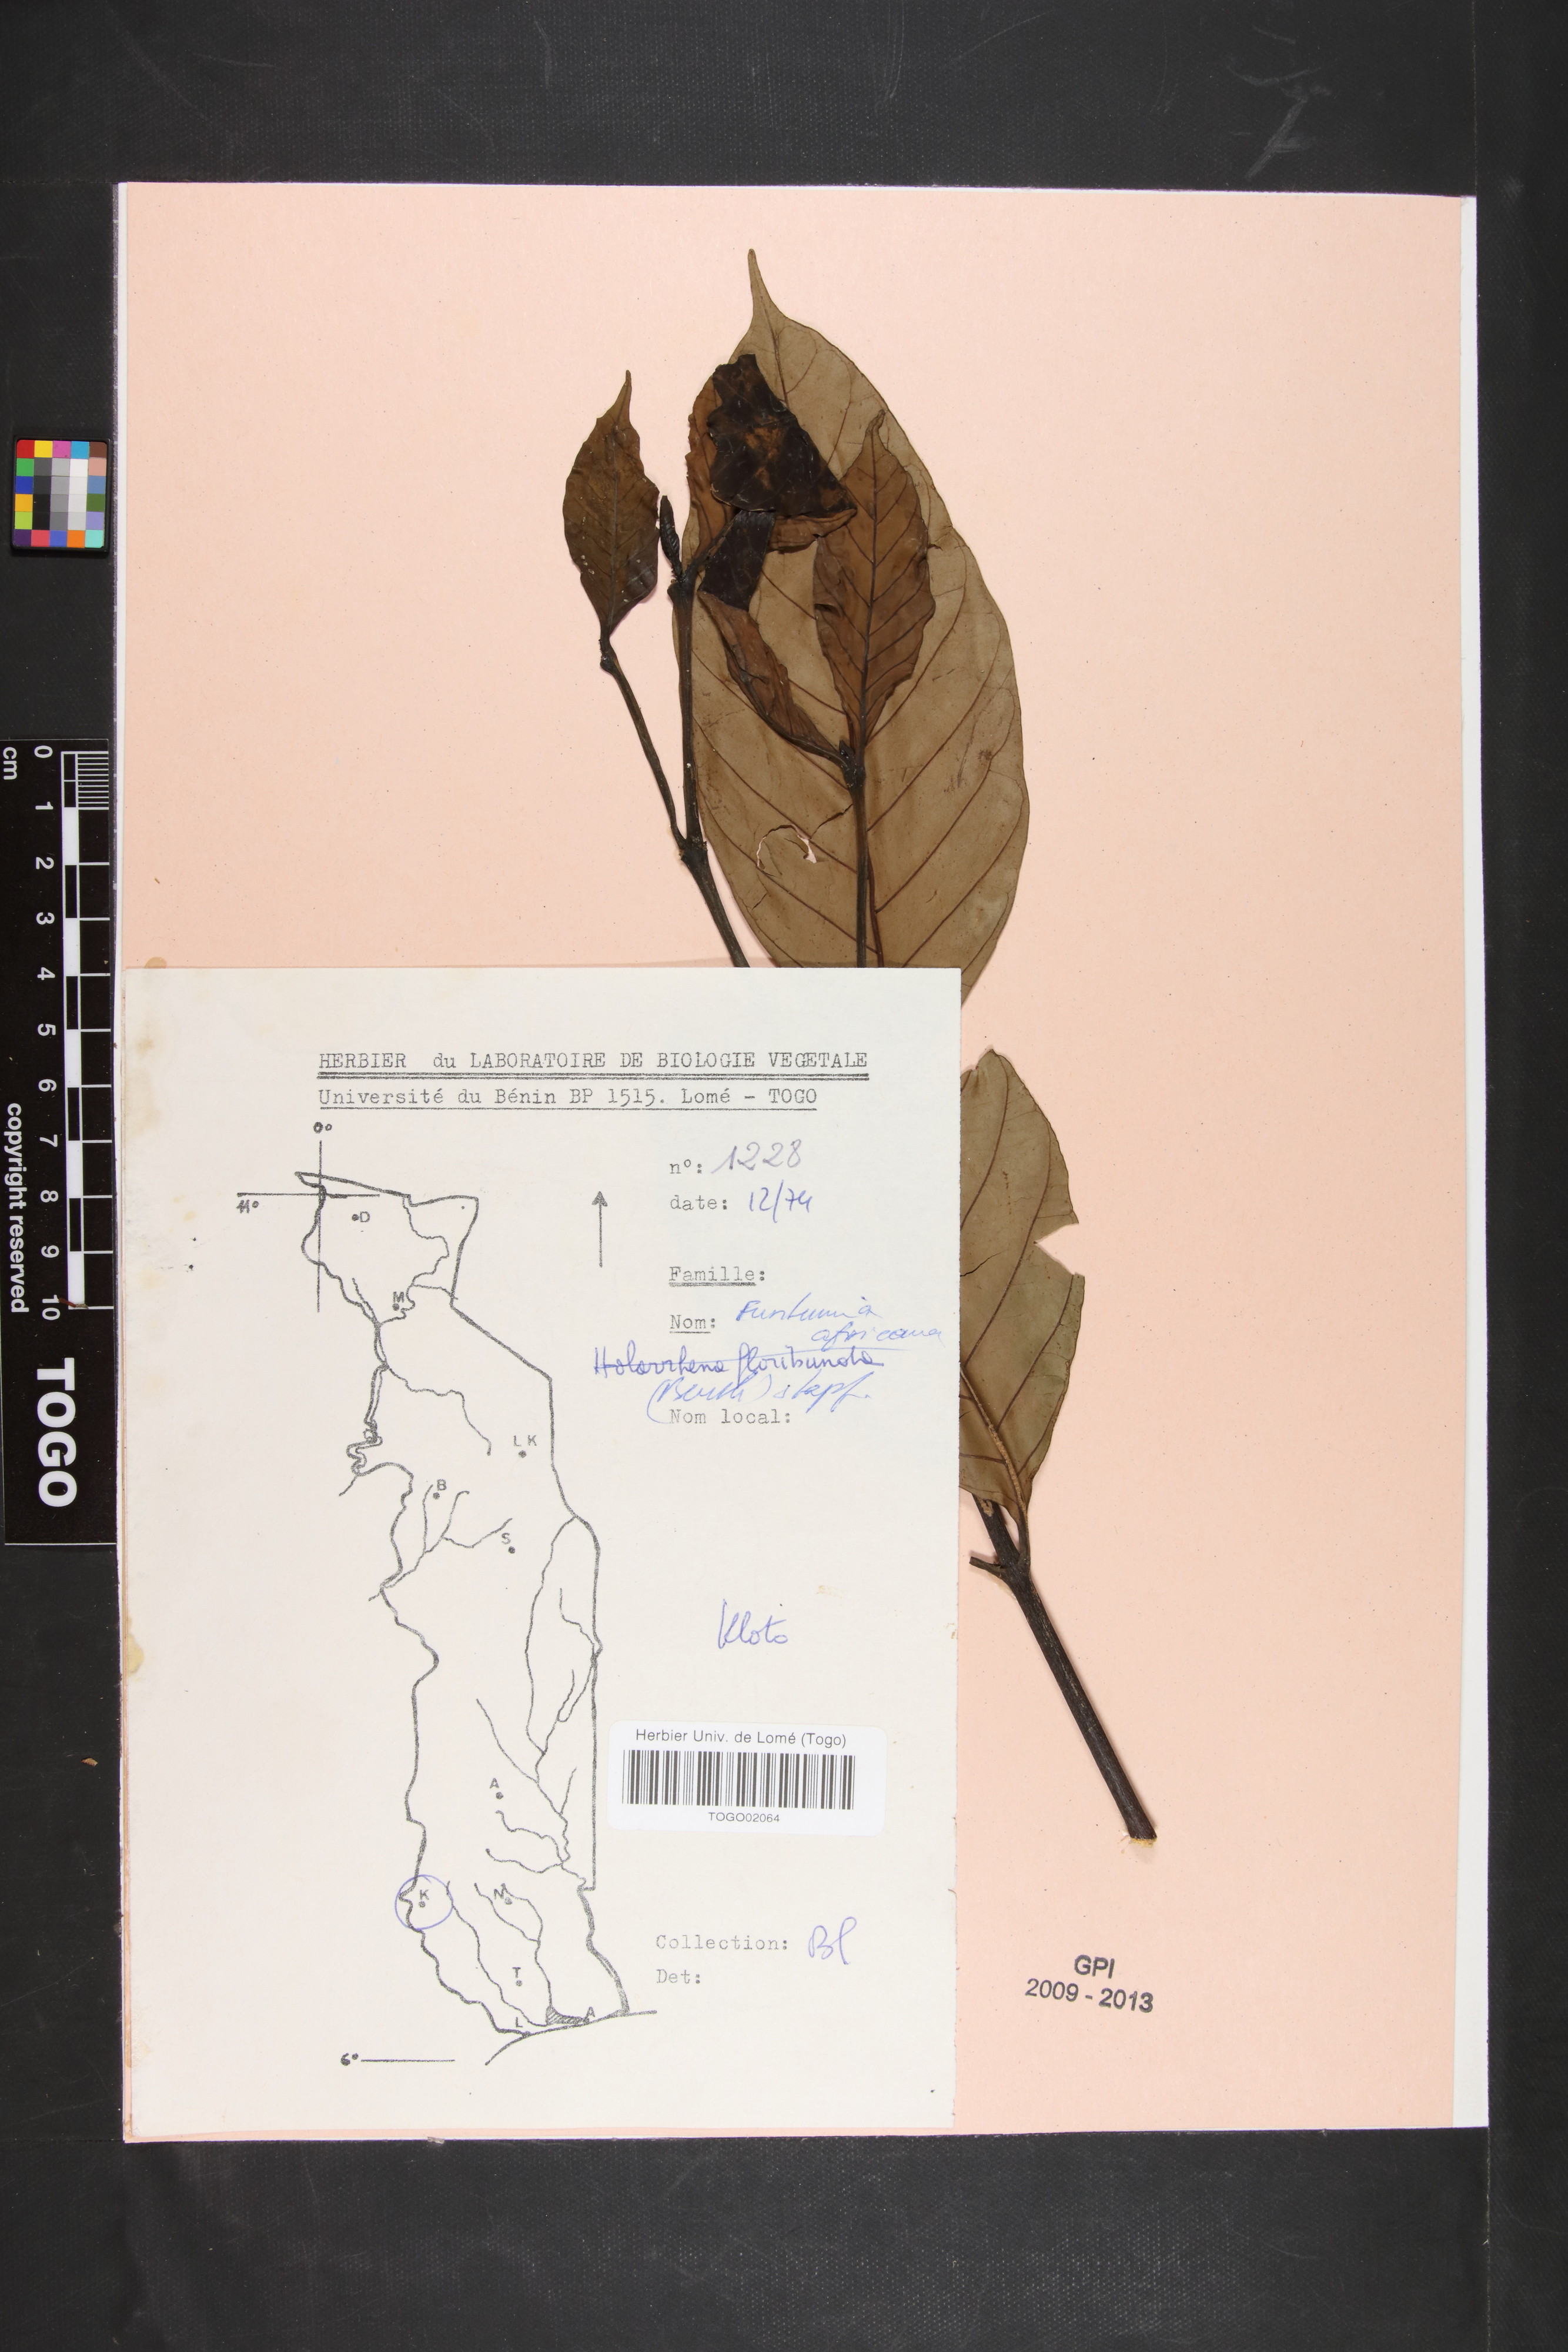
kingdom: Plantae
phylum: Tracheophyta
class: Magnoliopsida
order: Gentianales
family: Apocynaceae
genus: Funtumia
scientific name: Funtumia africana
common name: Lagos-rubber
